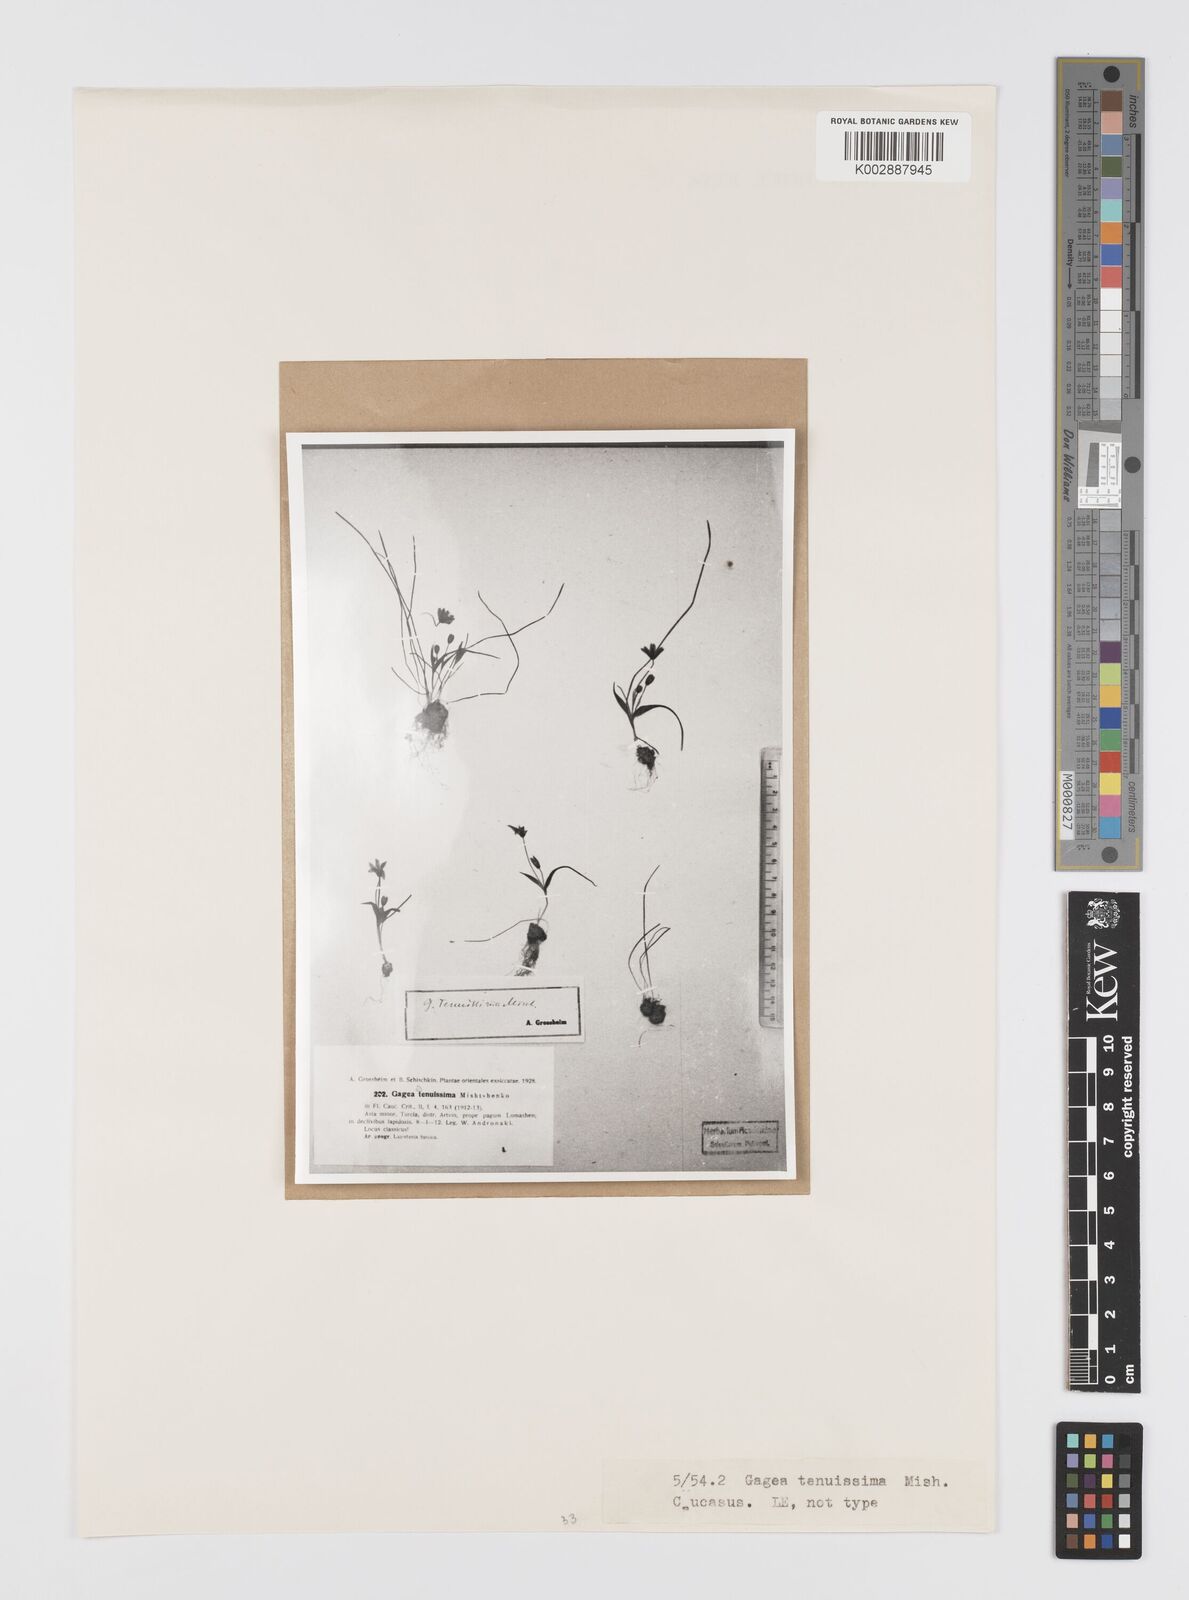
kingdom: Plantae
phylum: Tracheophyta
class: Liliopsida
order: Liliales
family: Liliaceae
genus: Gagea
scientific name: Gagea tenuissima
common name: Thinnest gagea
